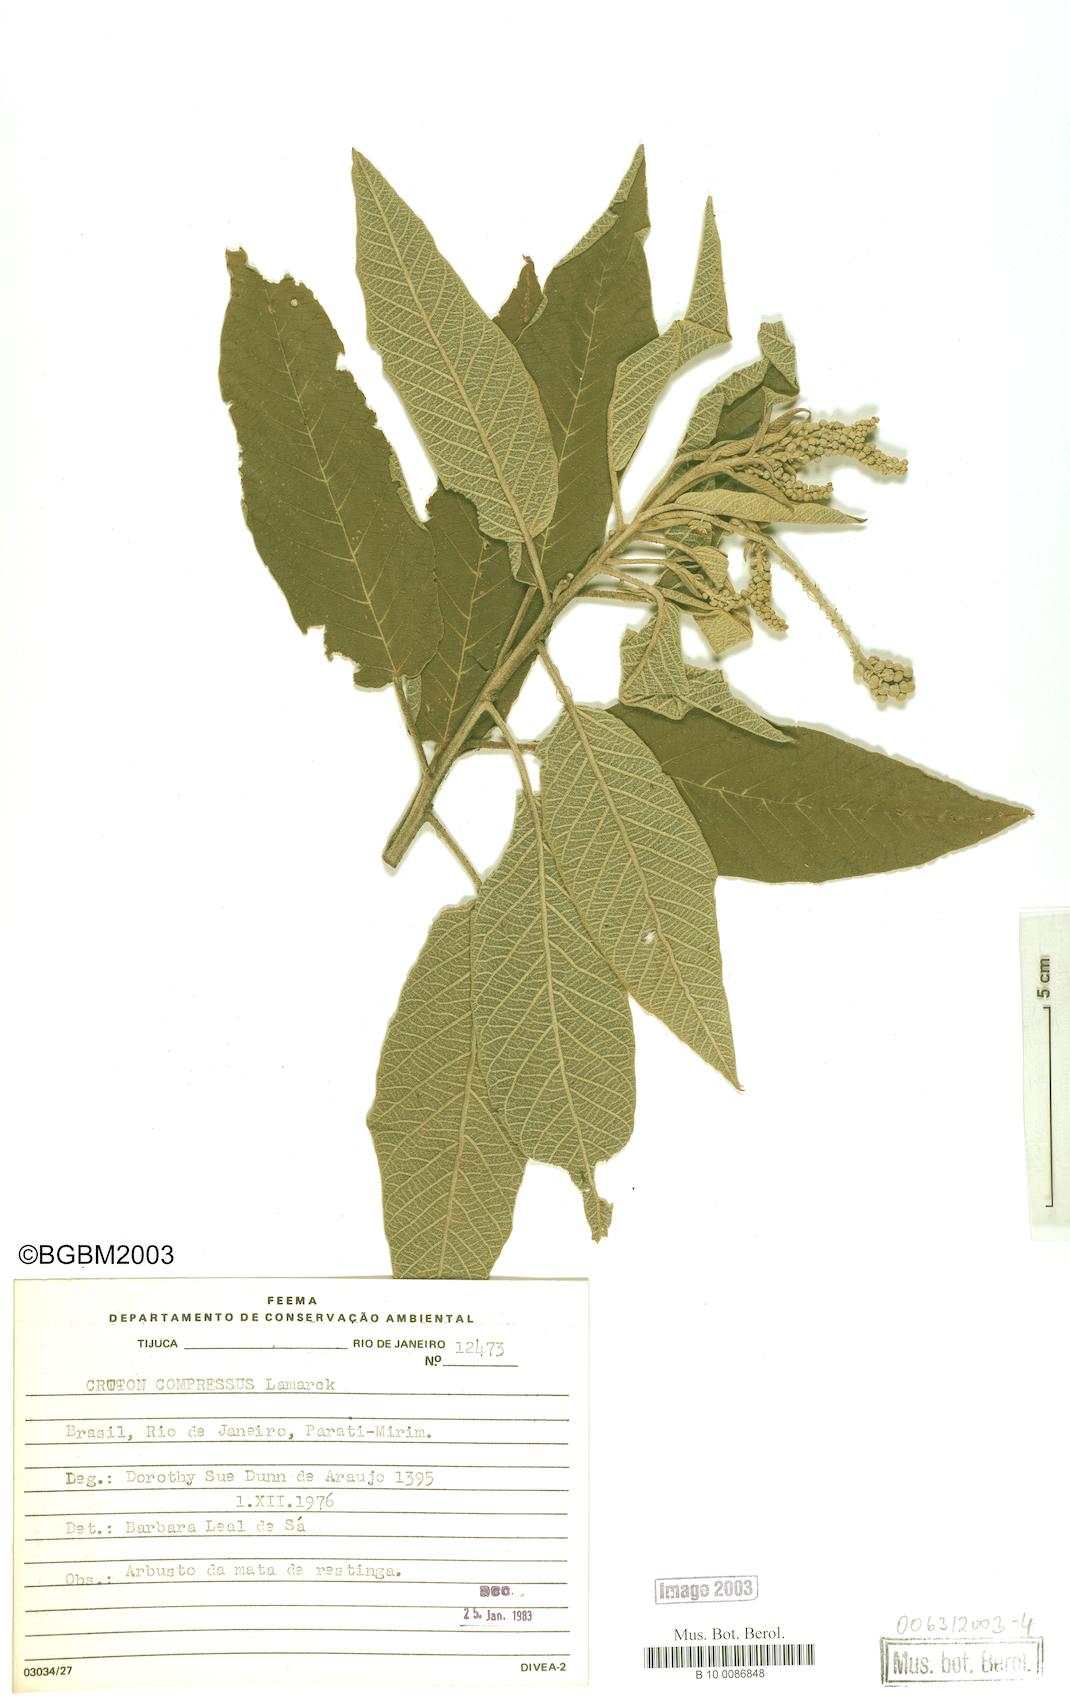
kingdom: Plantae
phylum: Tracheophyta
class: Magnoliopsida
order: Malpighiales
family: Euphorbiaceae
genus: Croton
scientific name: Croton compressus
